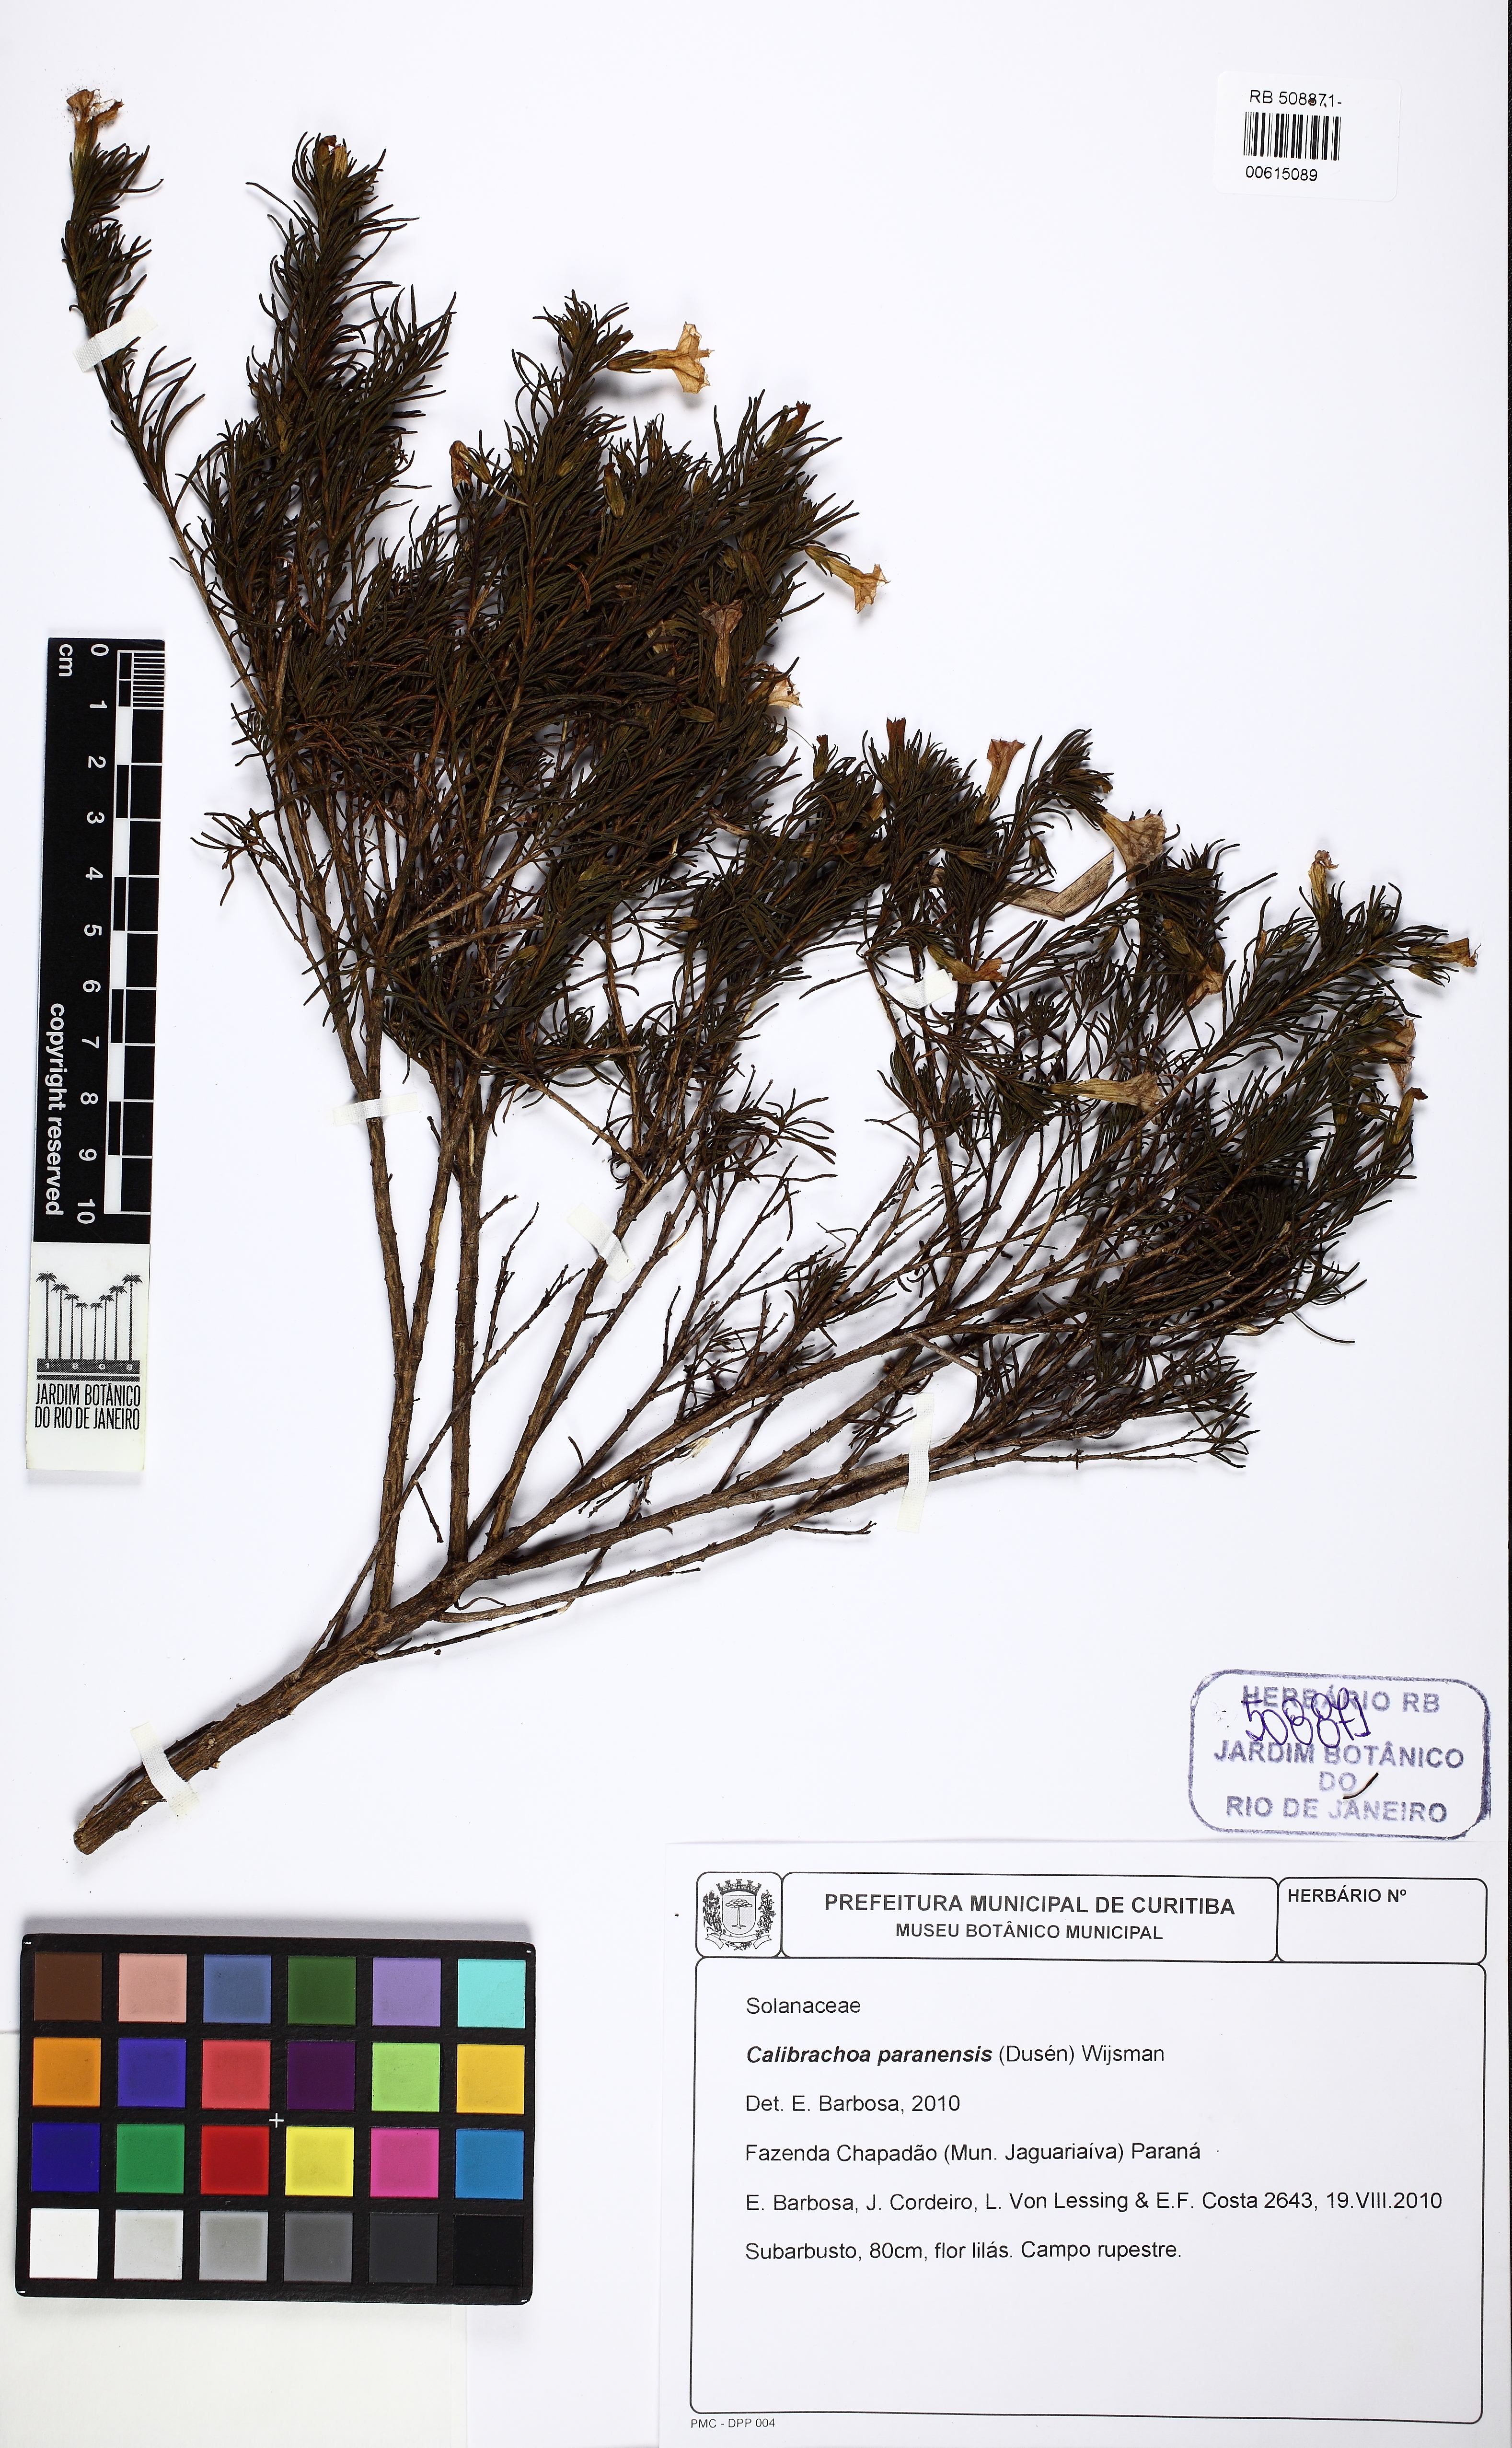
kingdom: Plantae
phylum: Tracheophyta
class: Magnoliopsida
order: Solanales
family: Solanaceae
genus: Calibrachoa
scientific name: Calibrachoa paranensis
